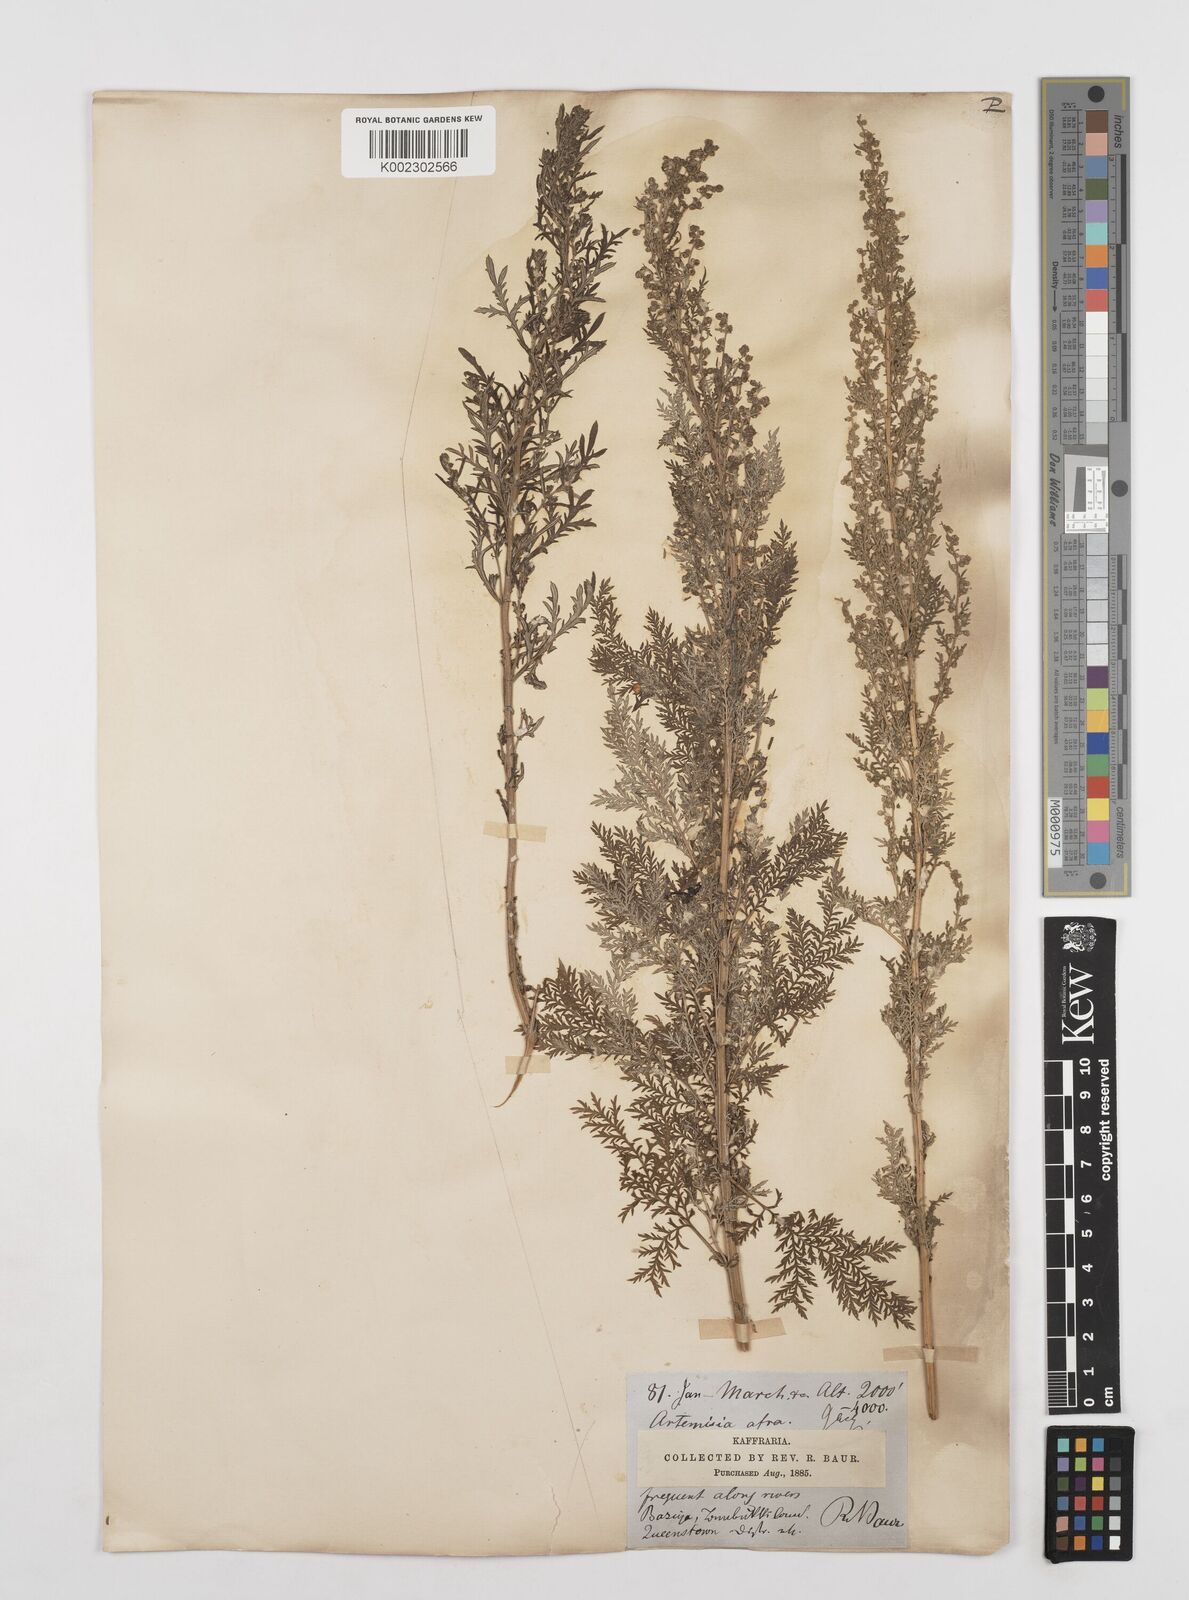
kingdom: Plantae
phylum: Tracheophyta
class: Magnoliopsida
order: Asterales
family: Asteraceae
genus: Artemisia
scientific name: Artemisia afra
